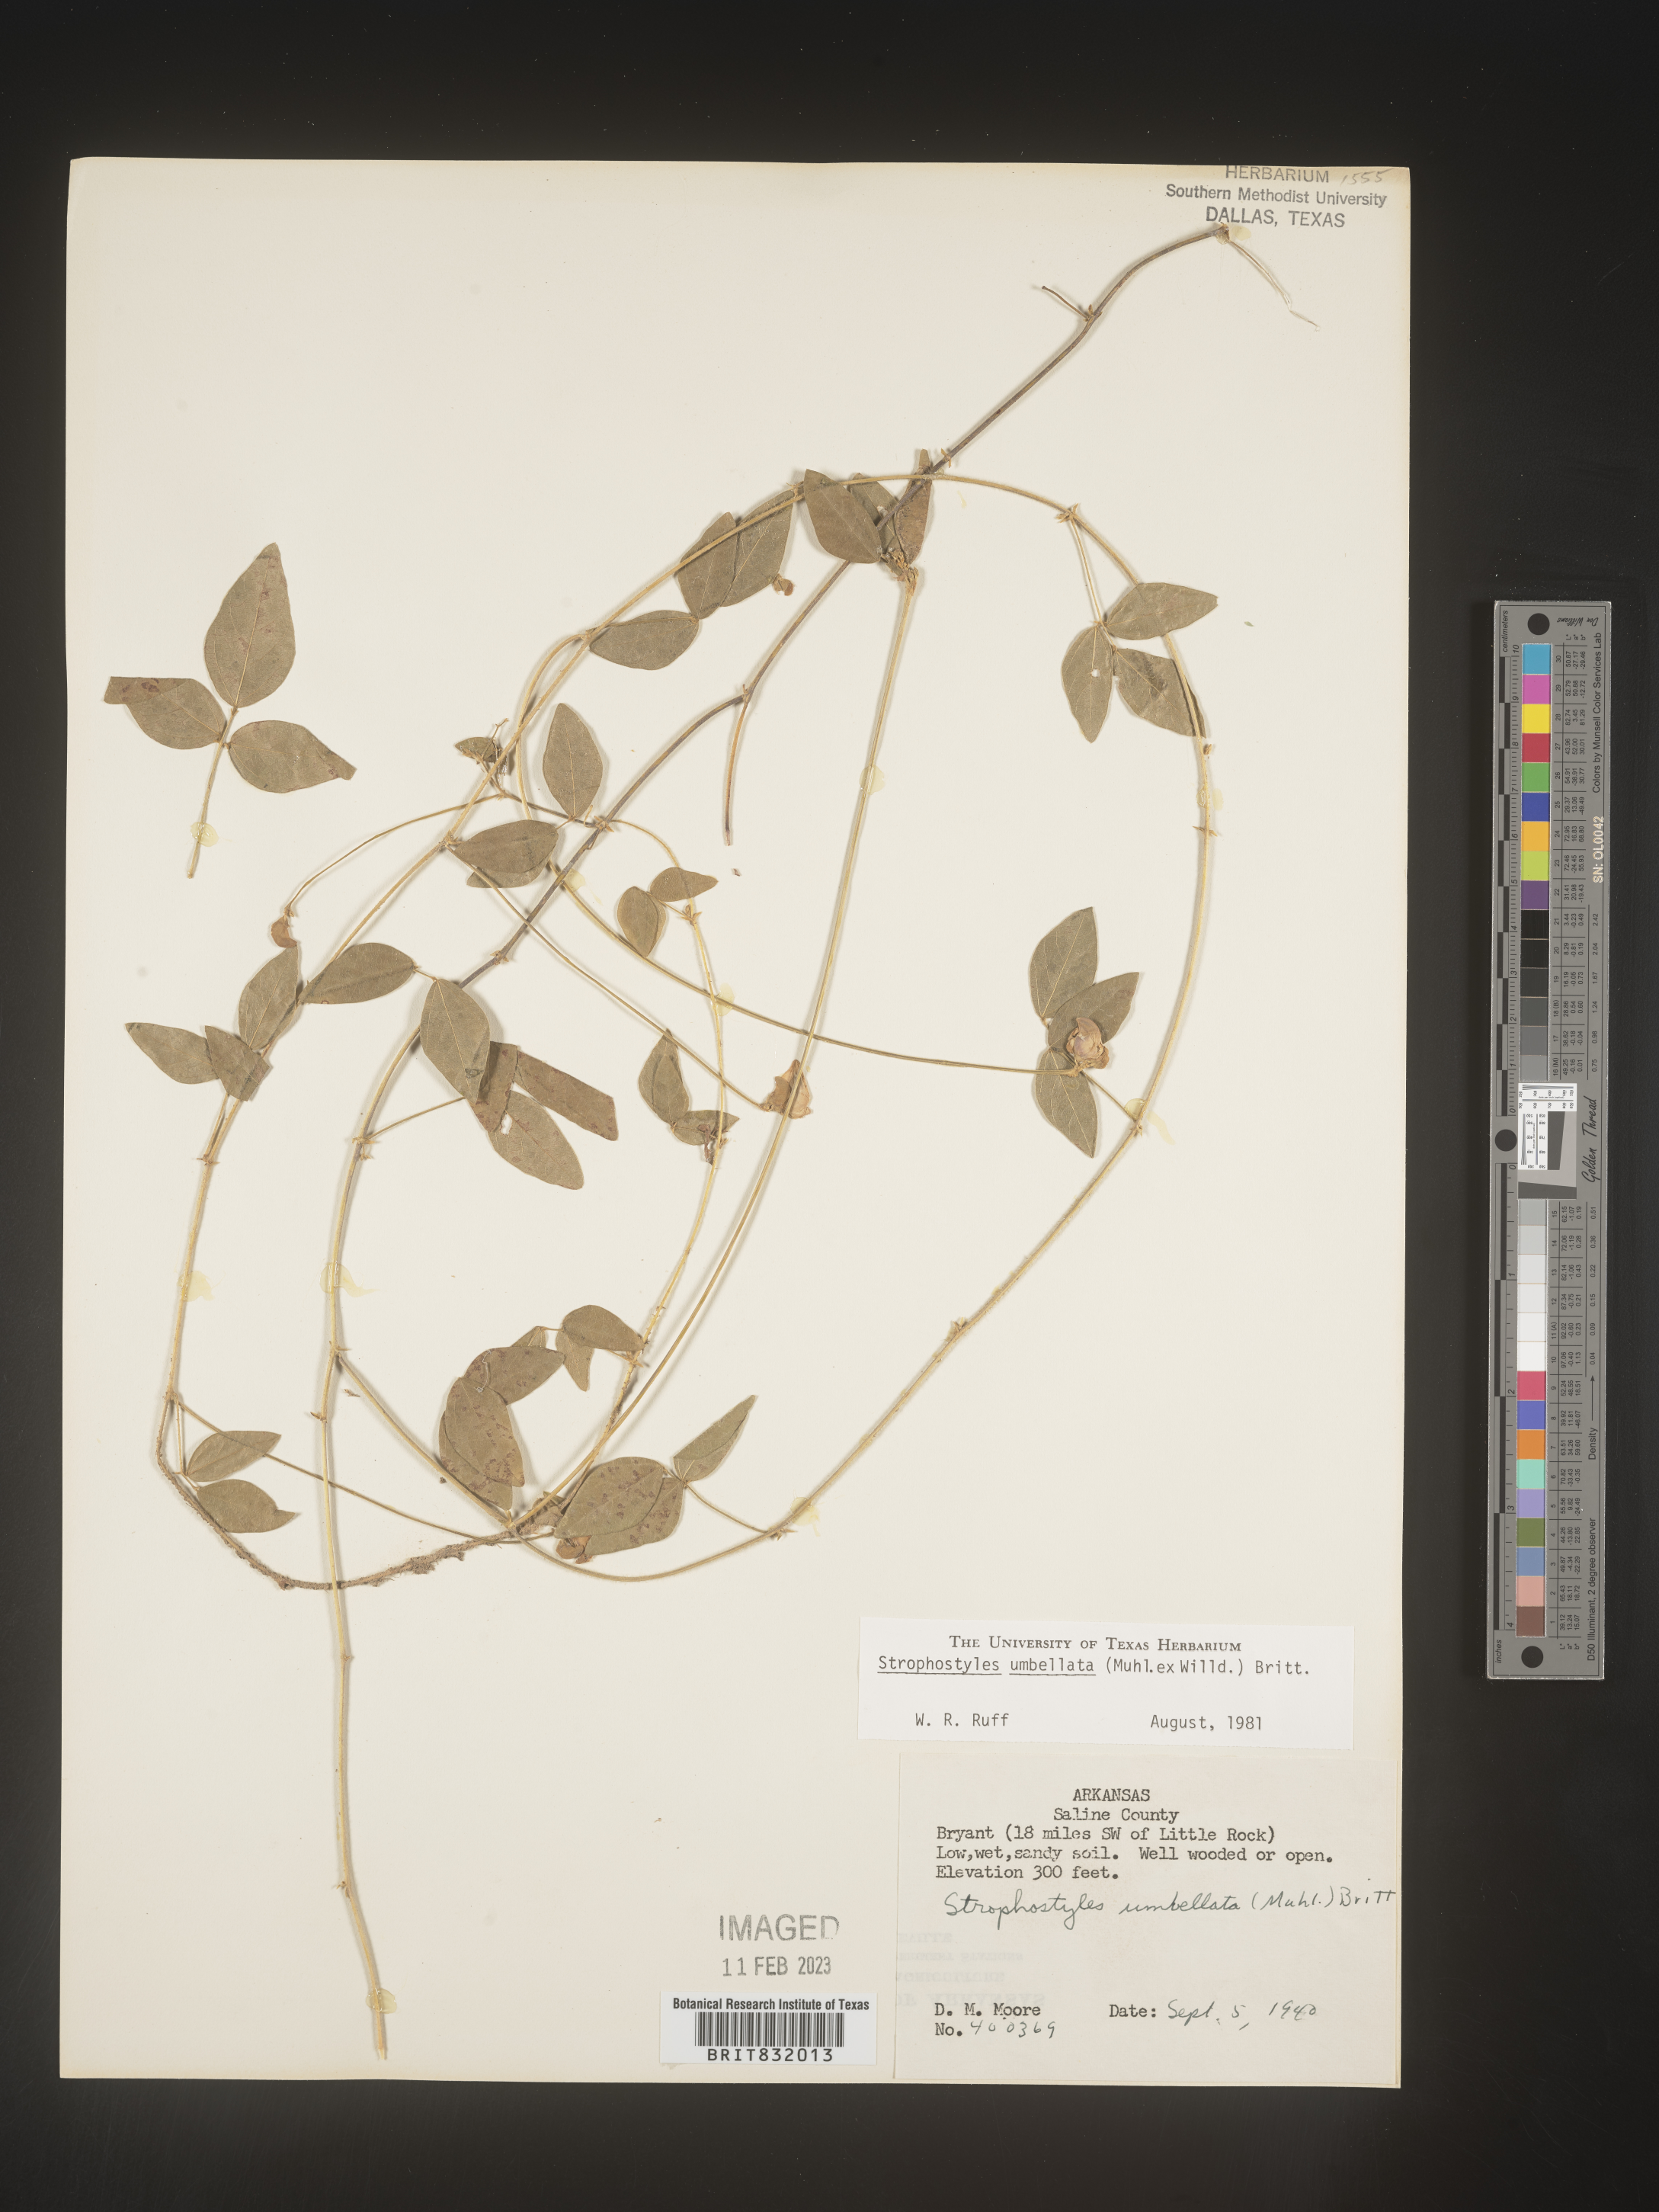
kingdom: Plantae
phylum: Tracheophyta
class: Magnoliopsida
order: Fabales
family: Fabaceae
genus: Strophostyles
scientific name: Strophostyles umbellata
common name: Perennial wild bean
